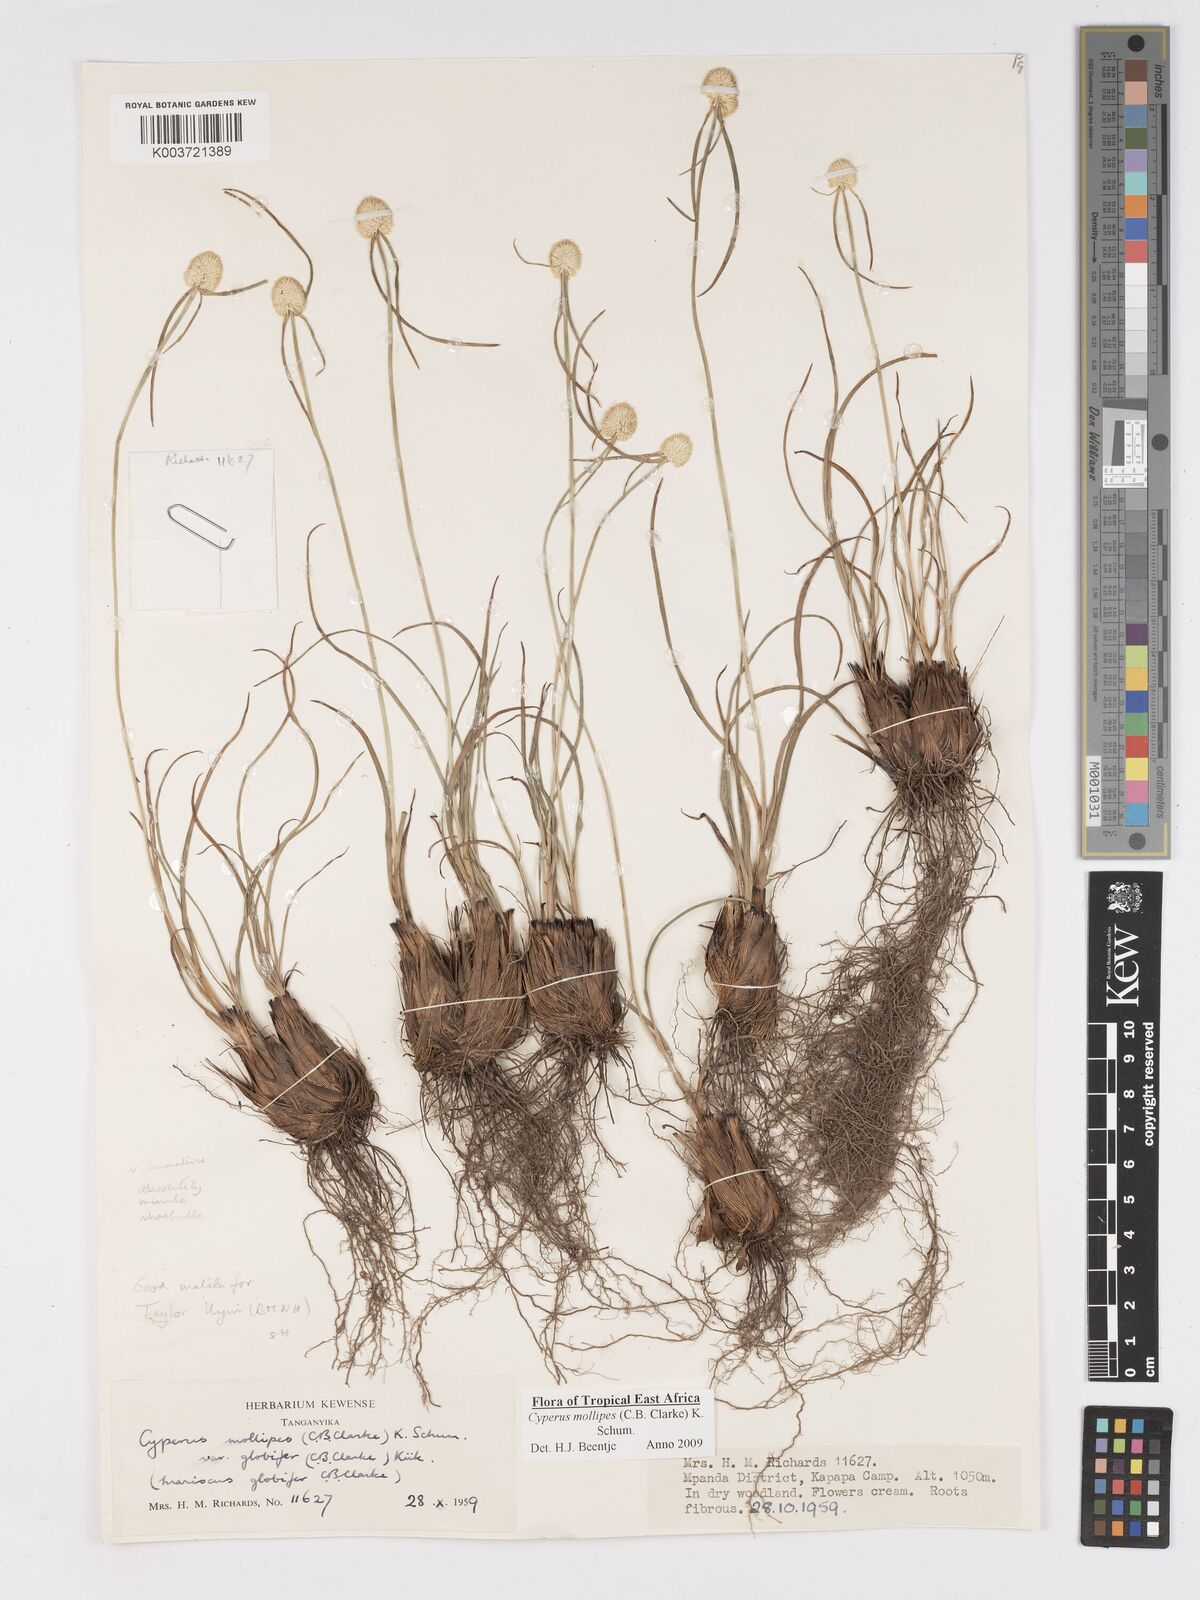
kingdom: Plantae
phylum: Tracheophyta
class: Liliopsida
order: Poales
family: Cyperaceae
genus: Cyperus
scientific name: Cyperus mollipes
